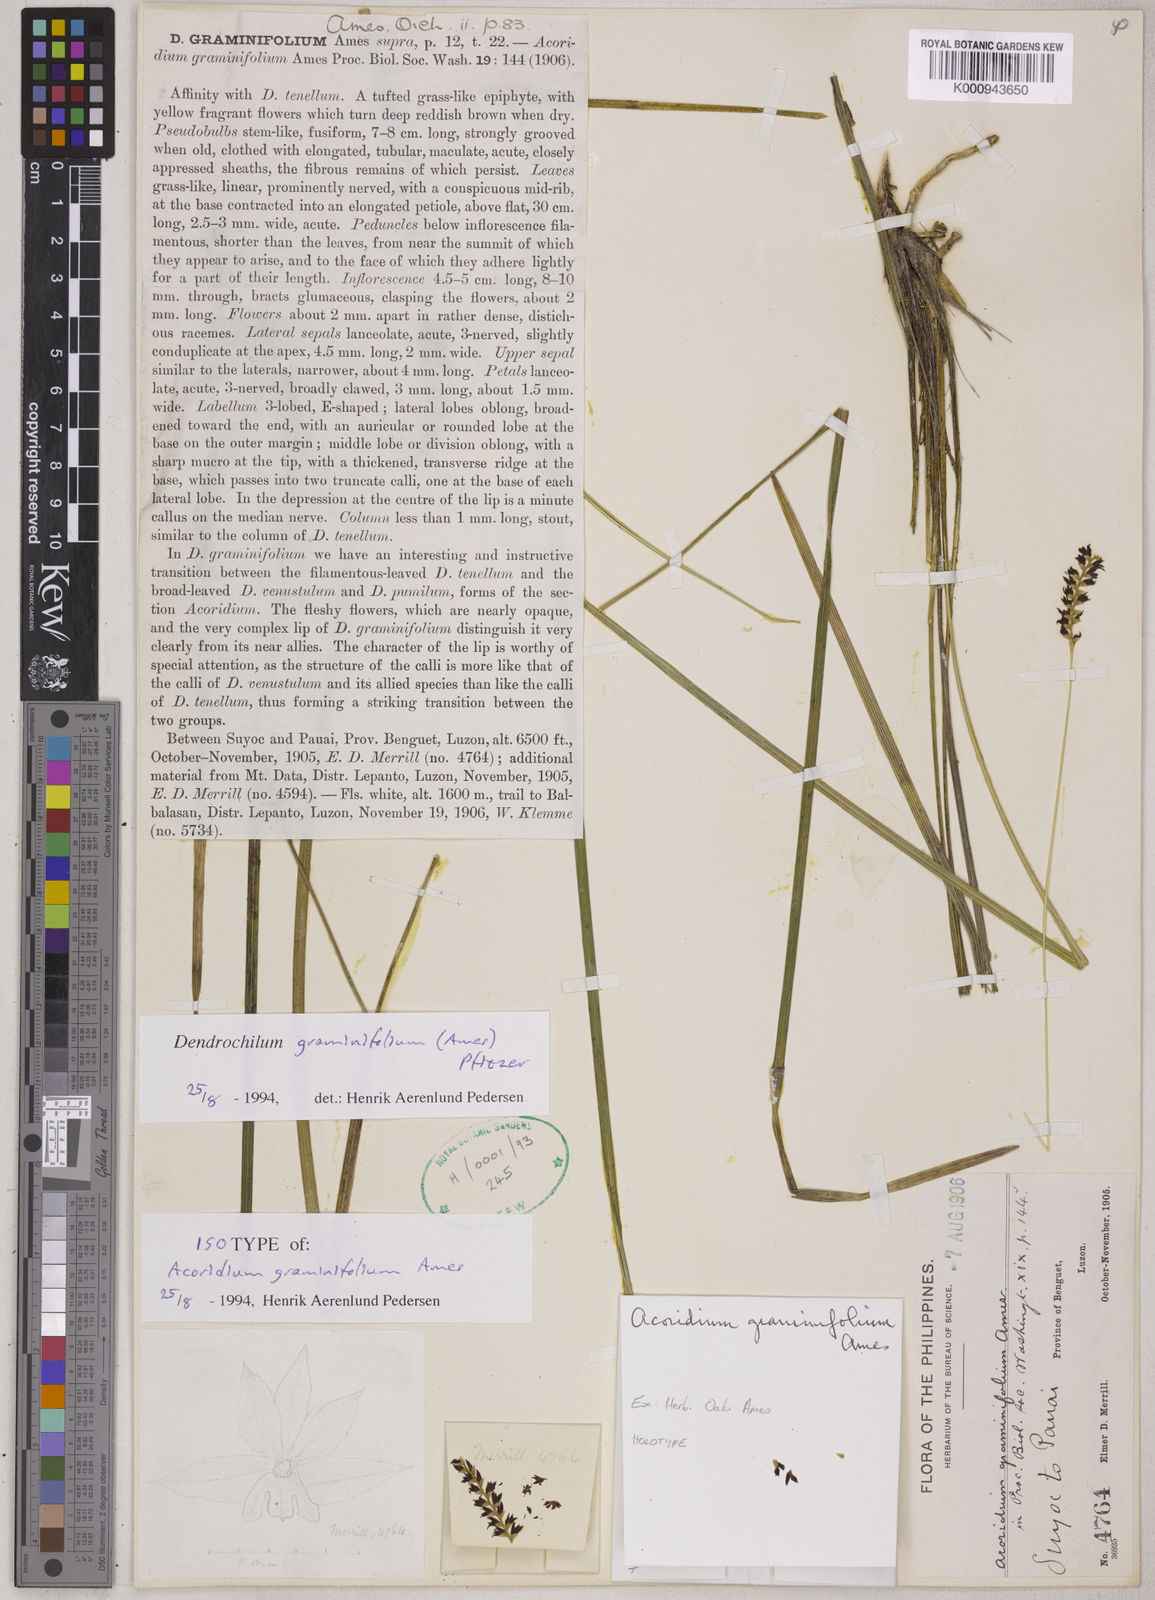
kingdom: Plantae
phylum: Tracheophyta
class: Liliopsida
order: Asparagales
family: Orchidaceae
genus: Coelogyne
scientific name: Coelogyne benguetensis
